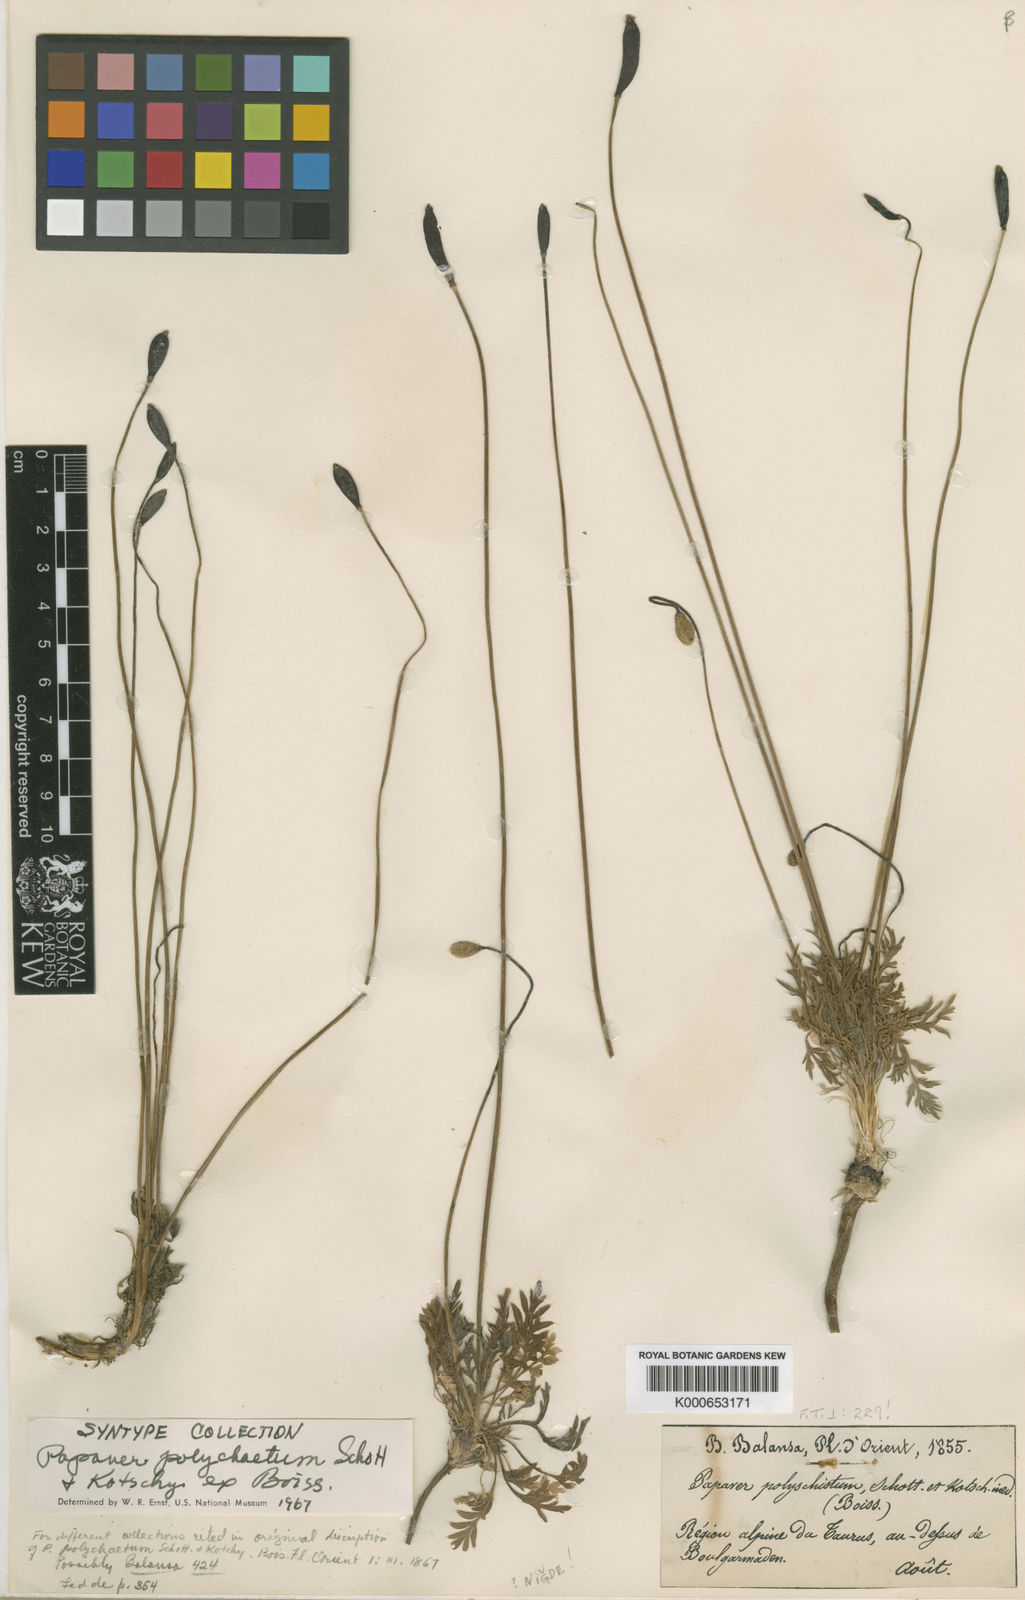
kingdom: Plantae
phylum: Tracheophyta
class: Magnoliopsida
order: Ranunculales
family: Papaveraceae
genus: Papaver
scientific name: Papaver libanoticum
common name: Lebanon poppy
